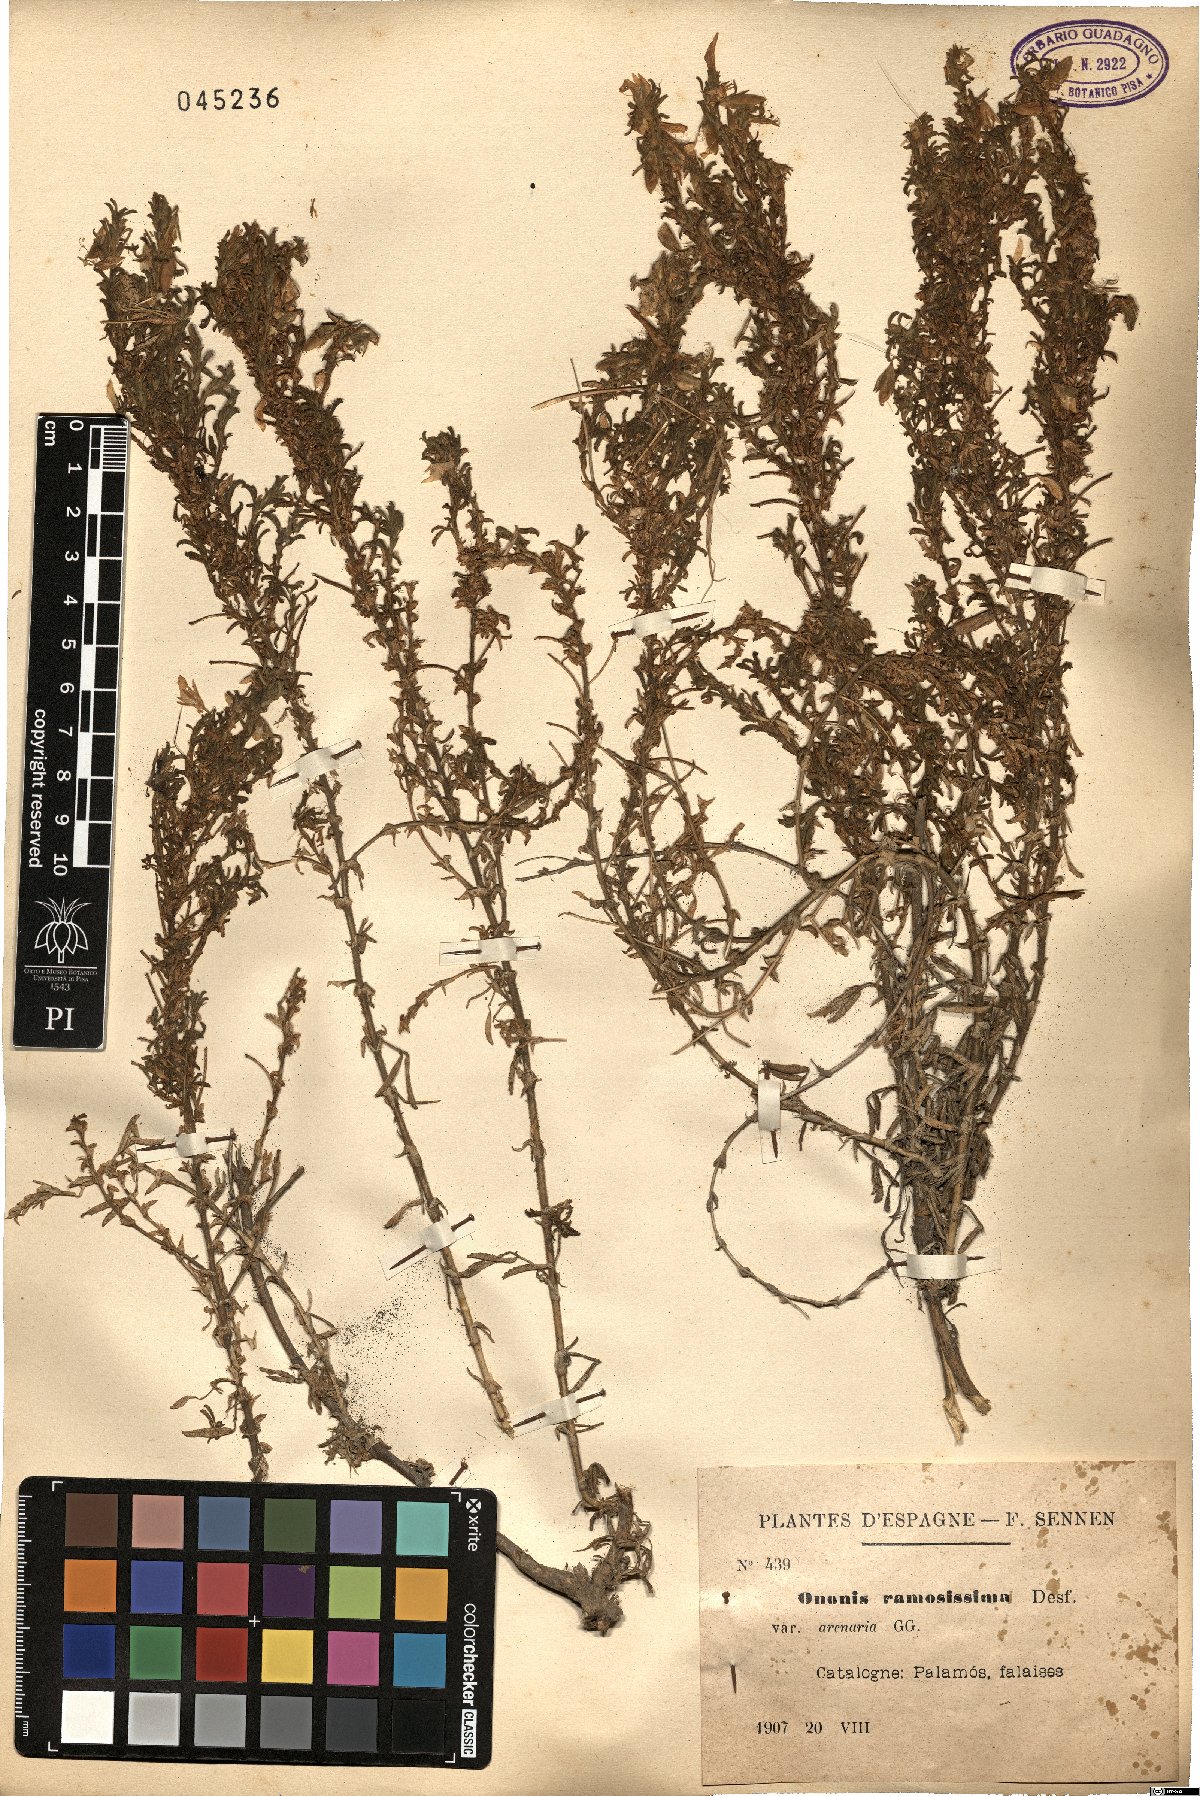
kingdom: Plantae
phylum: Tracheophyta
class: Magnoliopsida
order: Fabales
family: Fabaceae
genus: Ononis
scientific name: Ononis natrix
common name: Yellow restharrow
